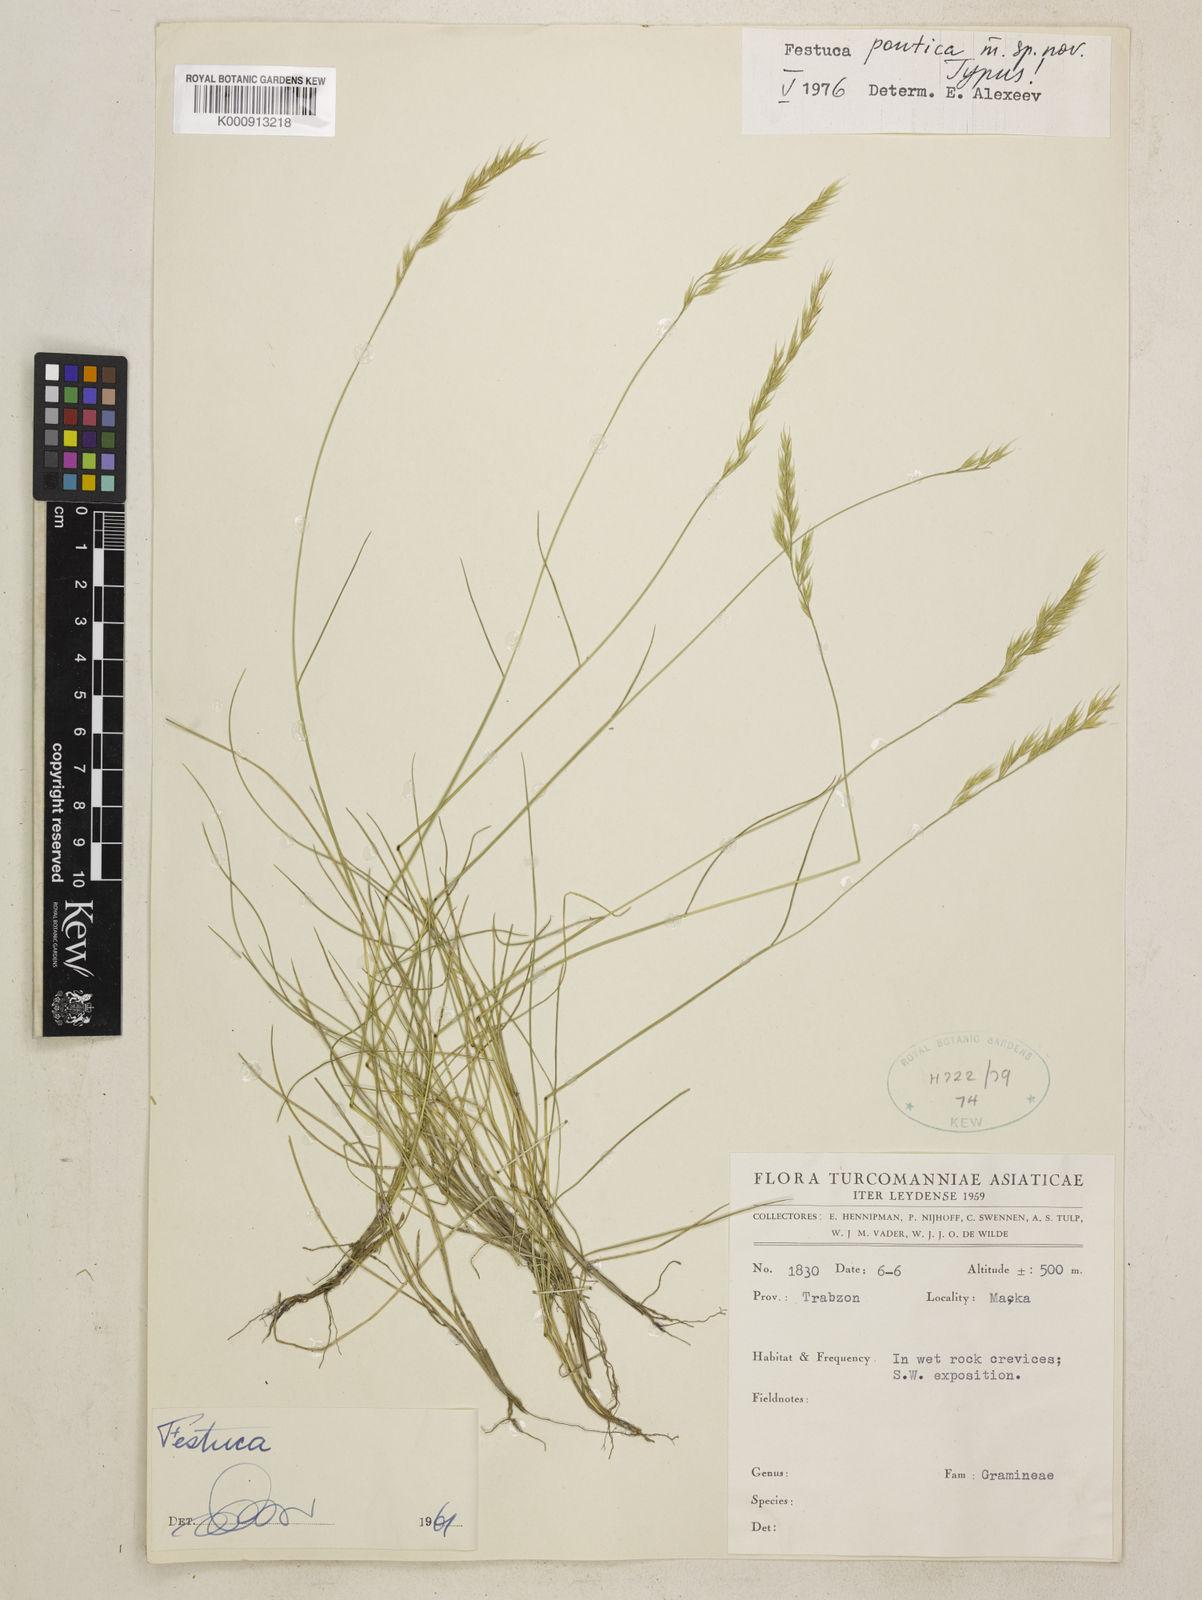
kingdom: Plantae
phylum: Tracheophyta
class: Liliopsida
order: Poales
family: Poaceae
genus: Festuca
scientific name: Festuca
